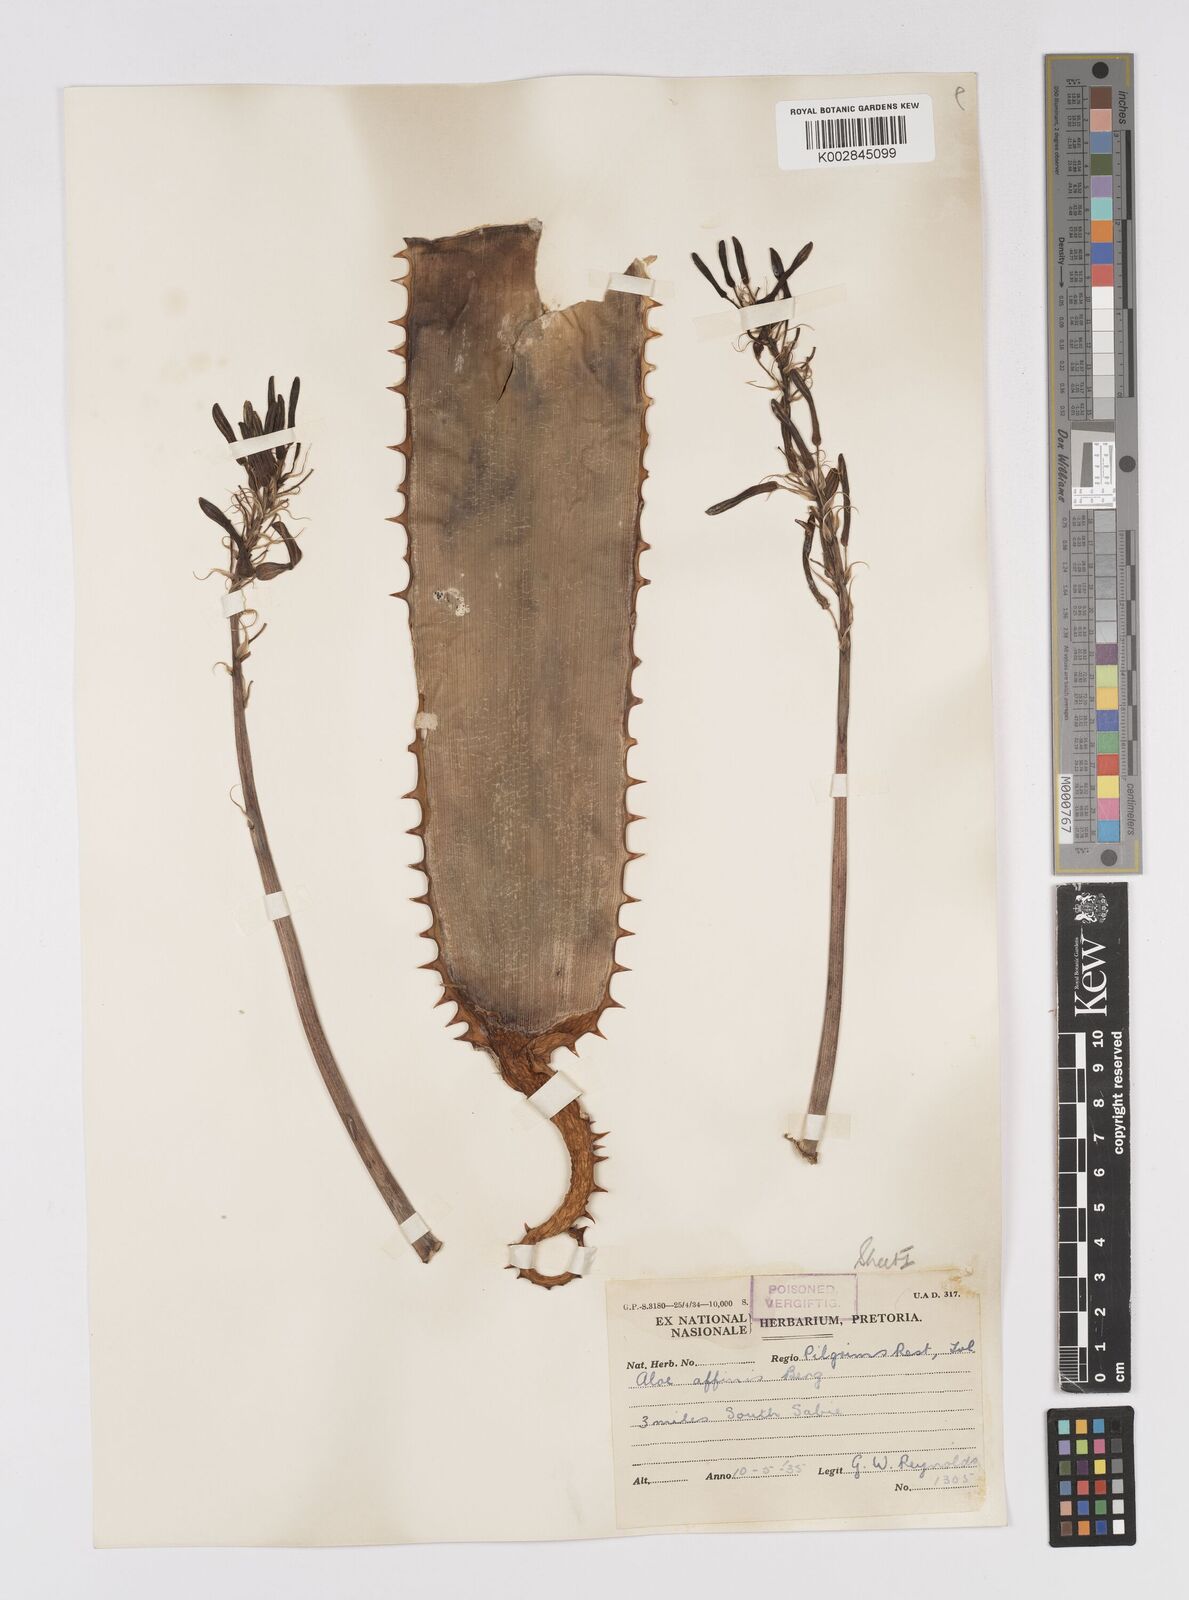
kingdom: Plantae
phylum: Tracheophyta
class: Liliopsida
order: Asparagales
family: Asphodelaceae
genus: Aloe
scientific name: Aloe affinis
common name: Spotted aloe
